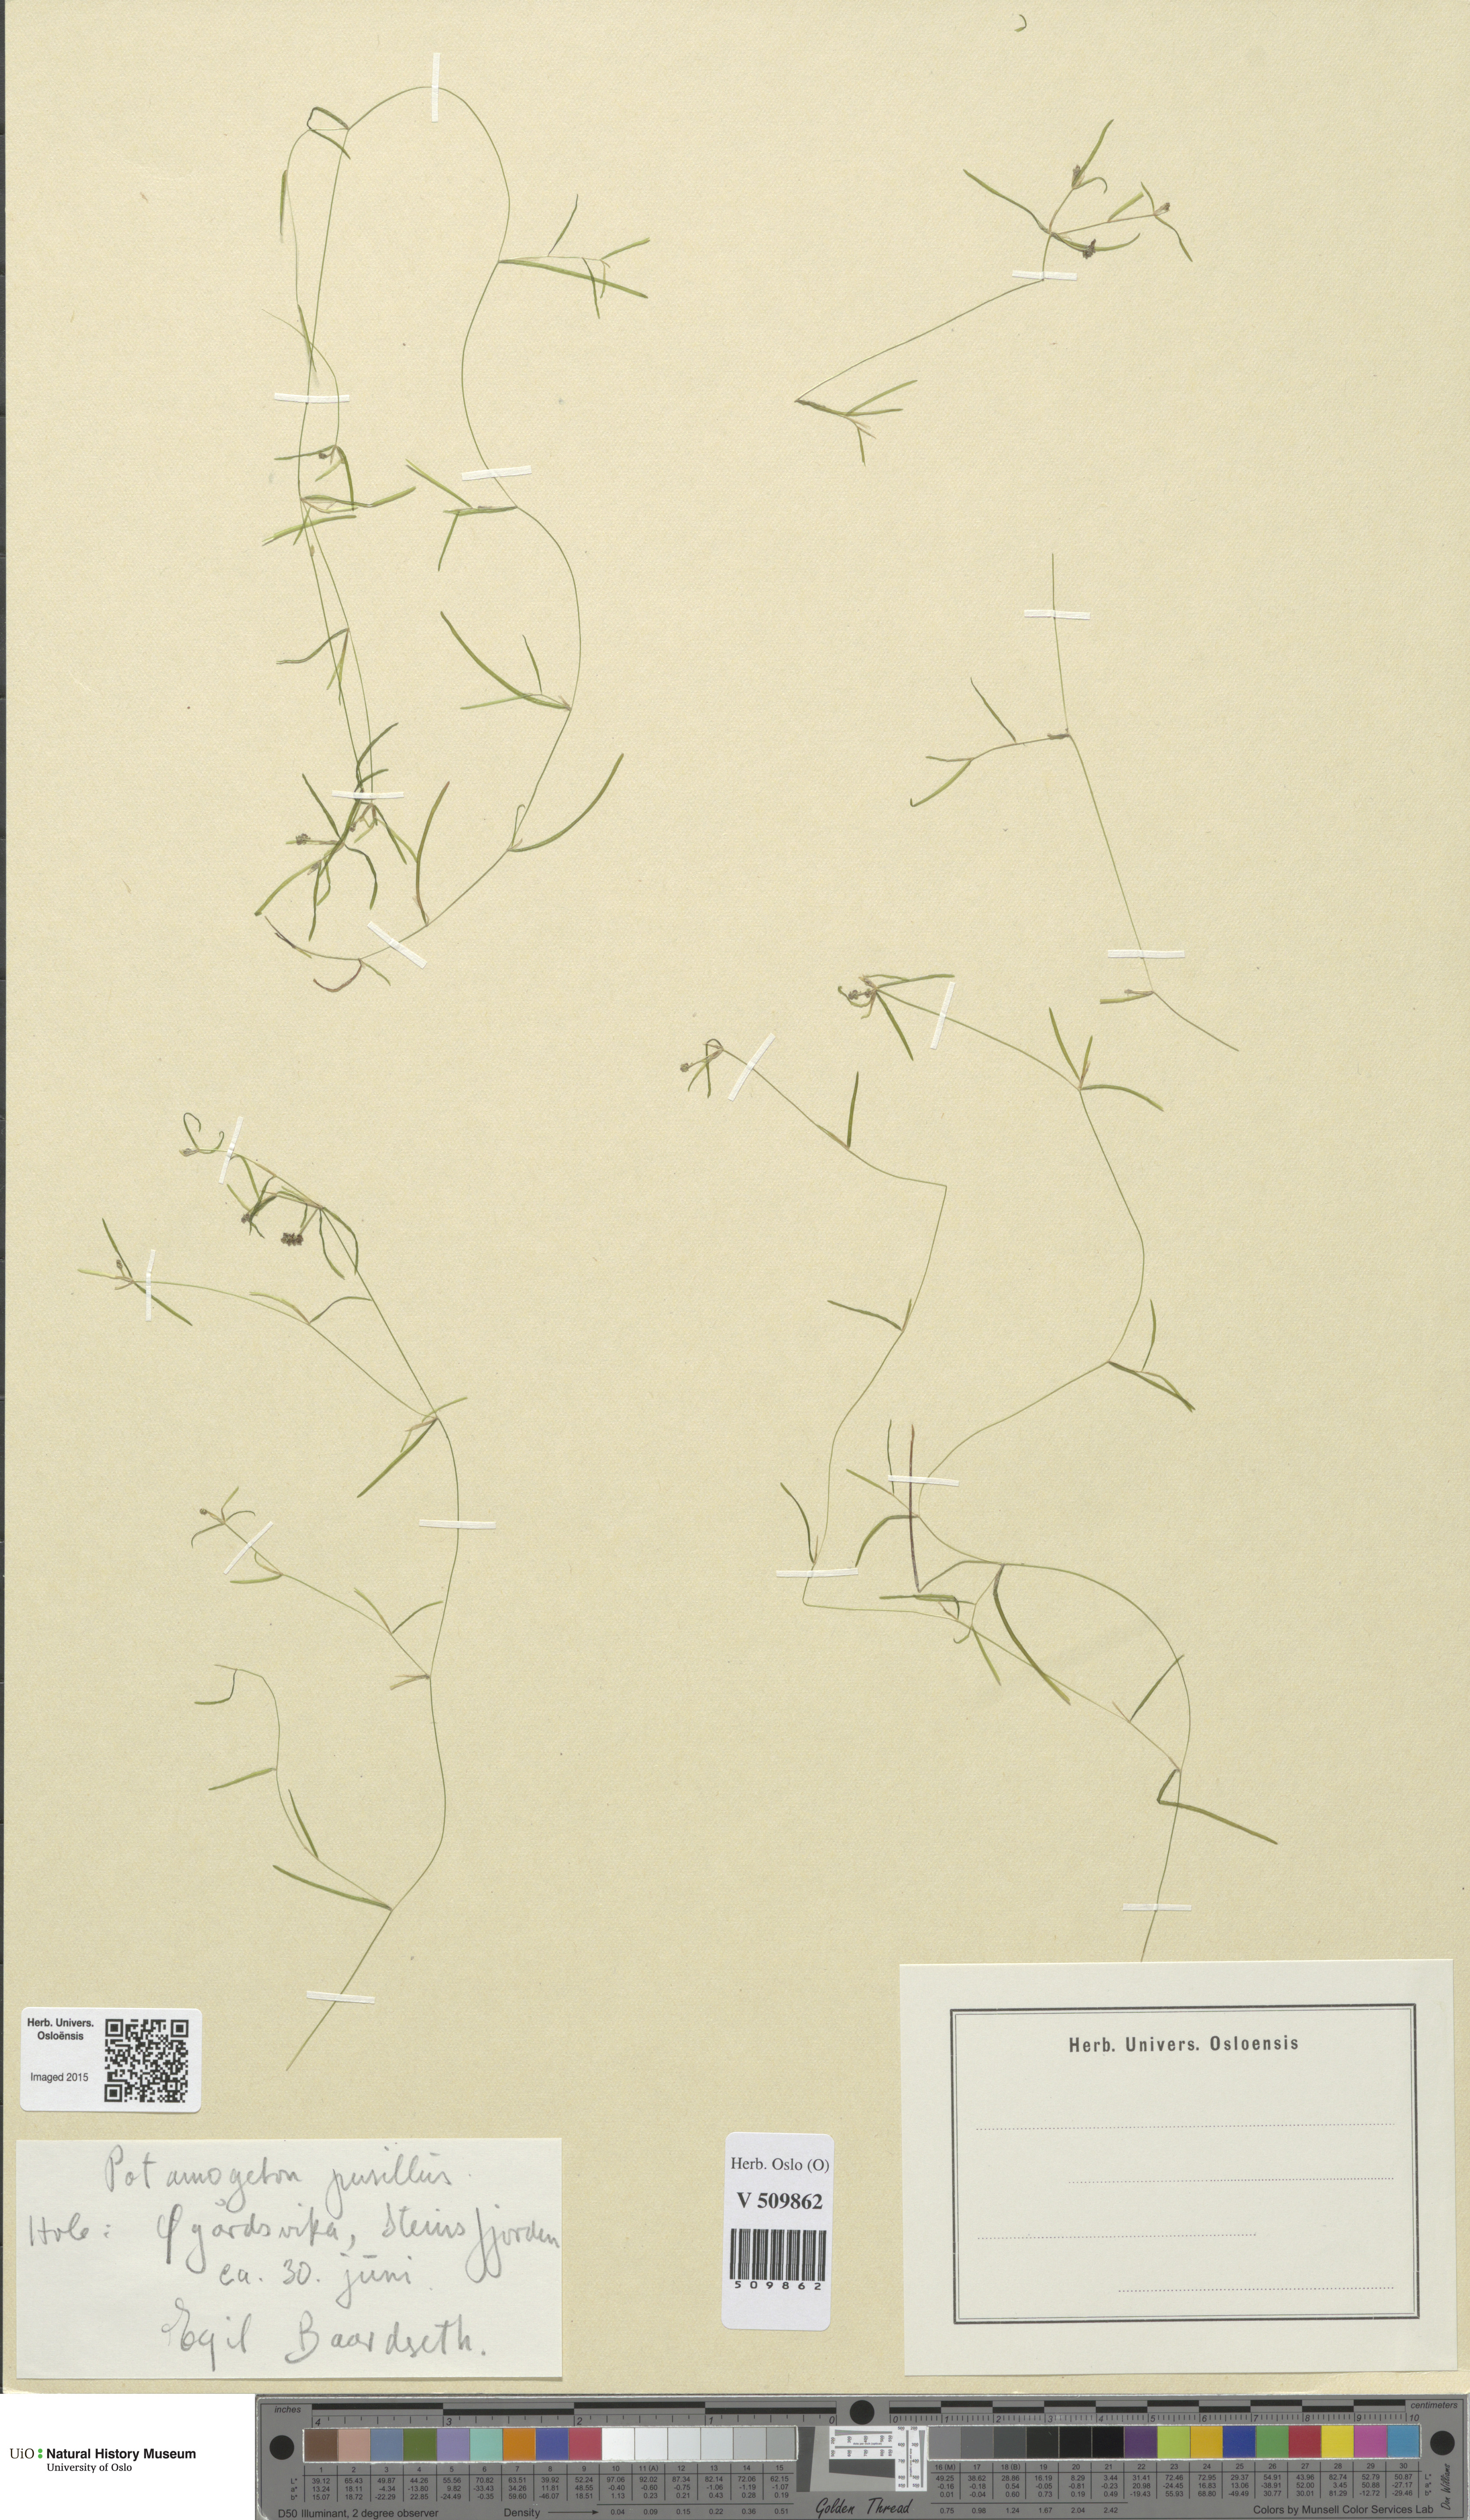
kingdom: Plantae
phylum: Tracheophyta
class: Liliopsida
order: Alismatales
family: Potamogetonaceae
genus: Potamogeton
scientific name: Potamogeton berchtoldii
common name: Small pondweed
